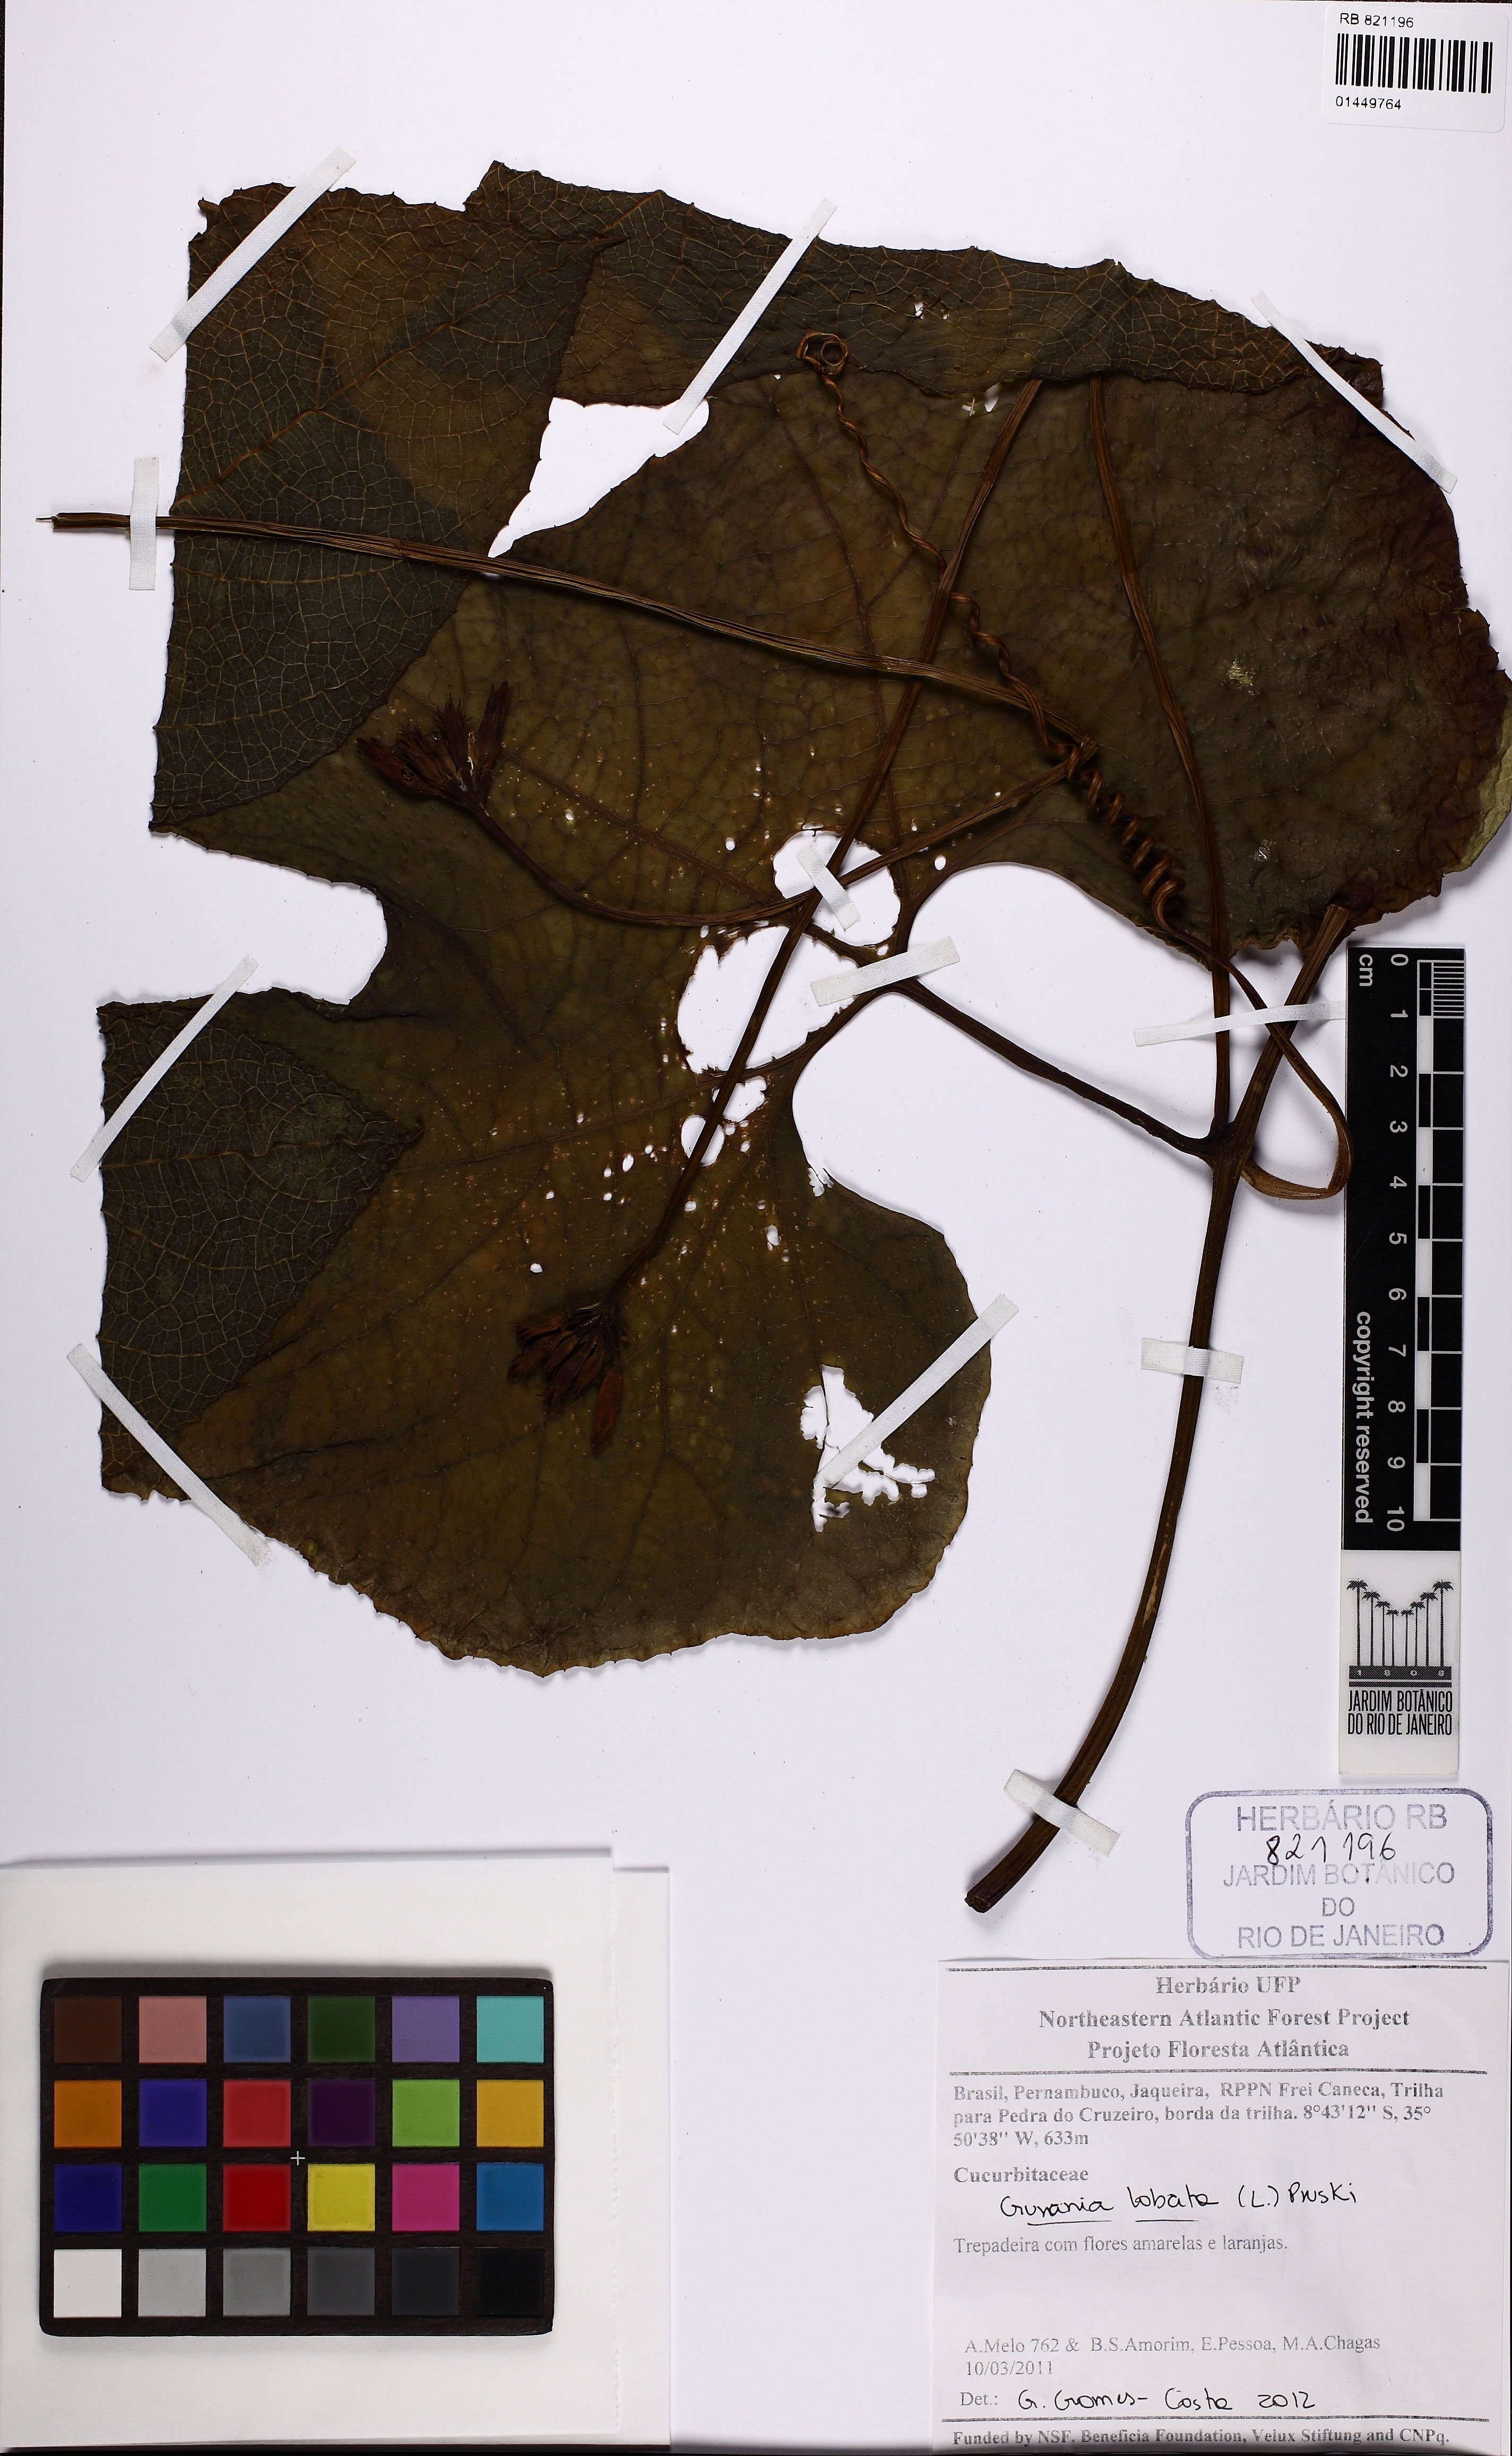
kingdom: Plantae
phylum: Tracheophyta
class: Magnoliopsida
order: Cucurbitales
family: Cucurbitaceae
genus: Gurania
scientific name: Gurania lobata
